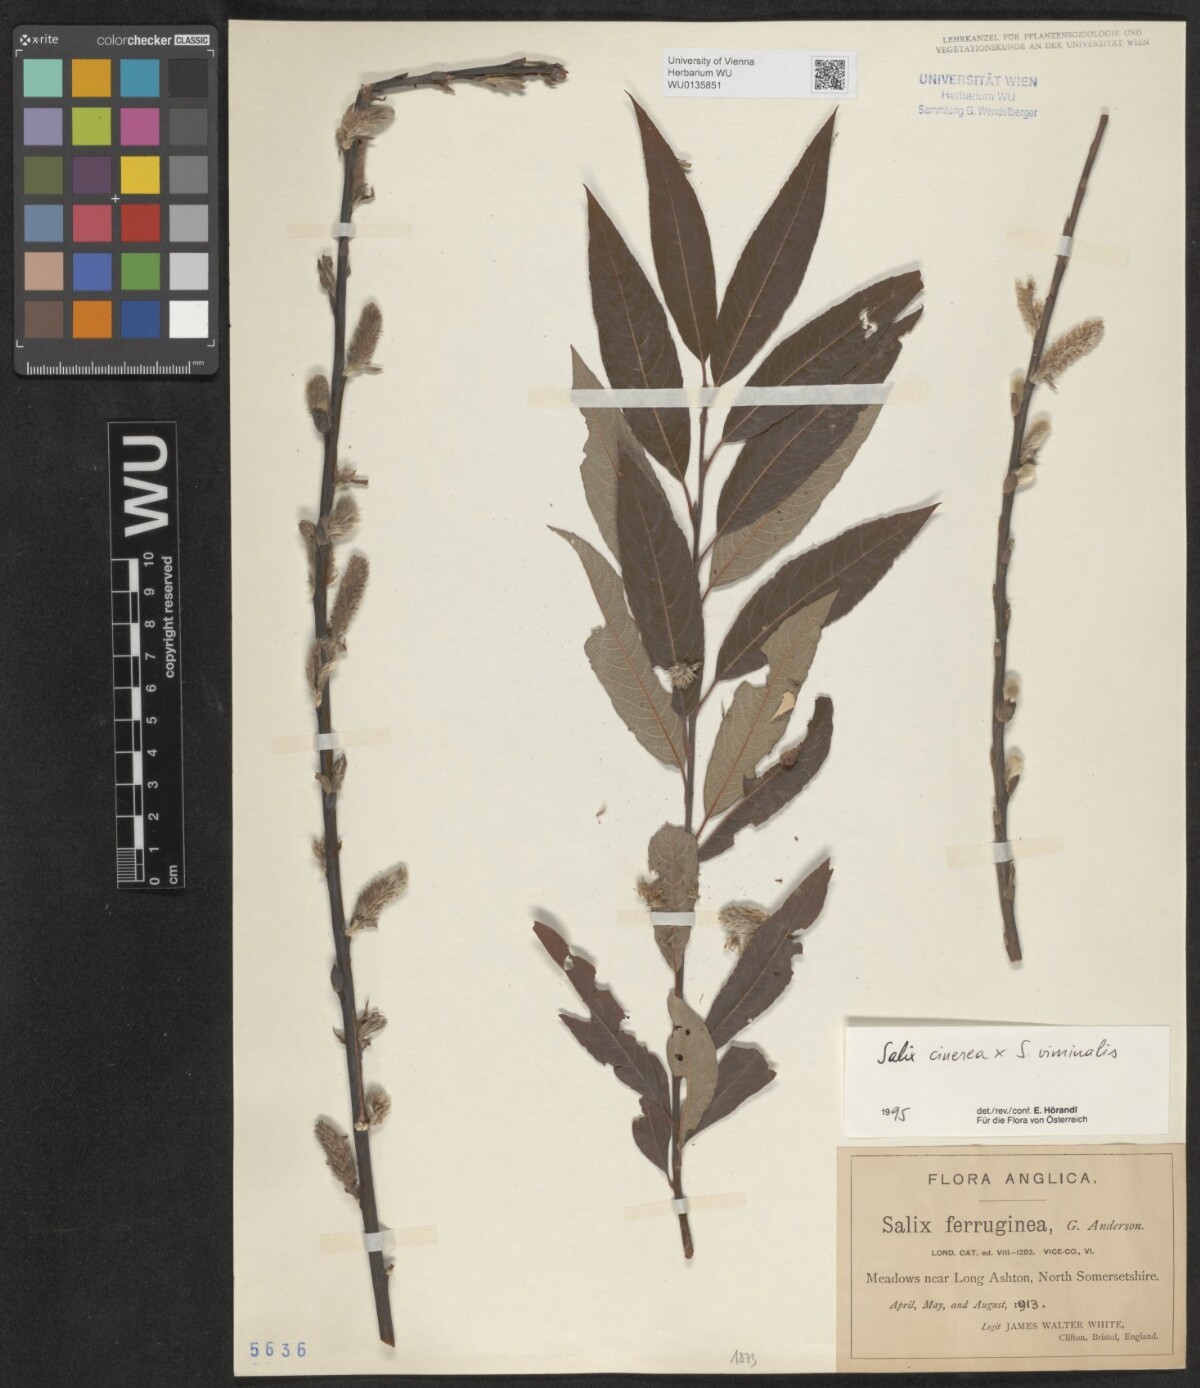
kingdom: Plantae
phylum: Tracheophyta
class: Magnoliopsida
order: Malpighiales
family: Salicaceae
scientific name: Salicaceae
